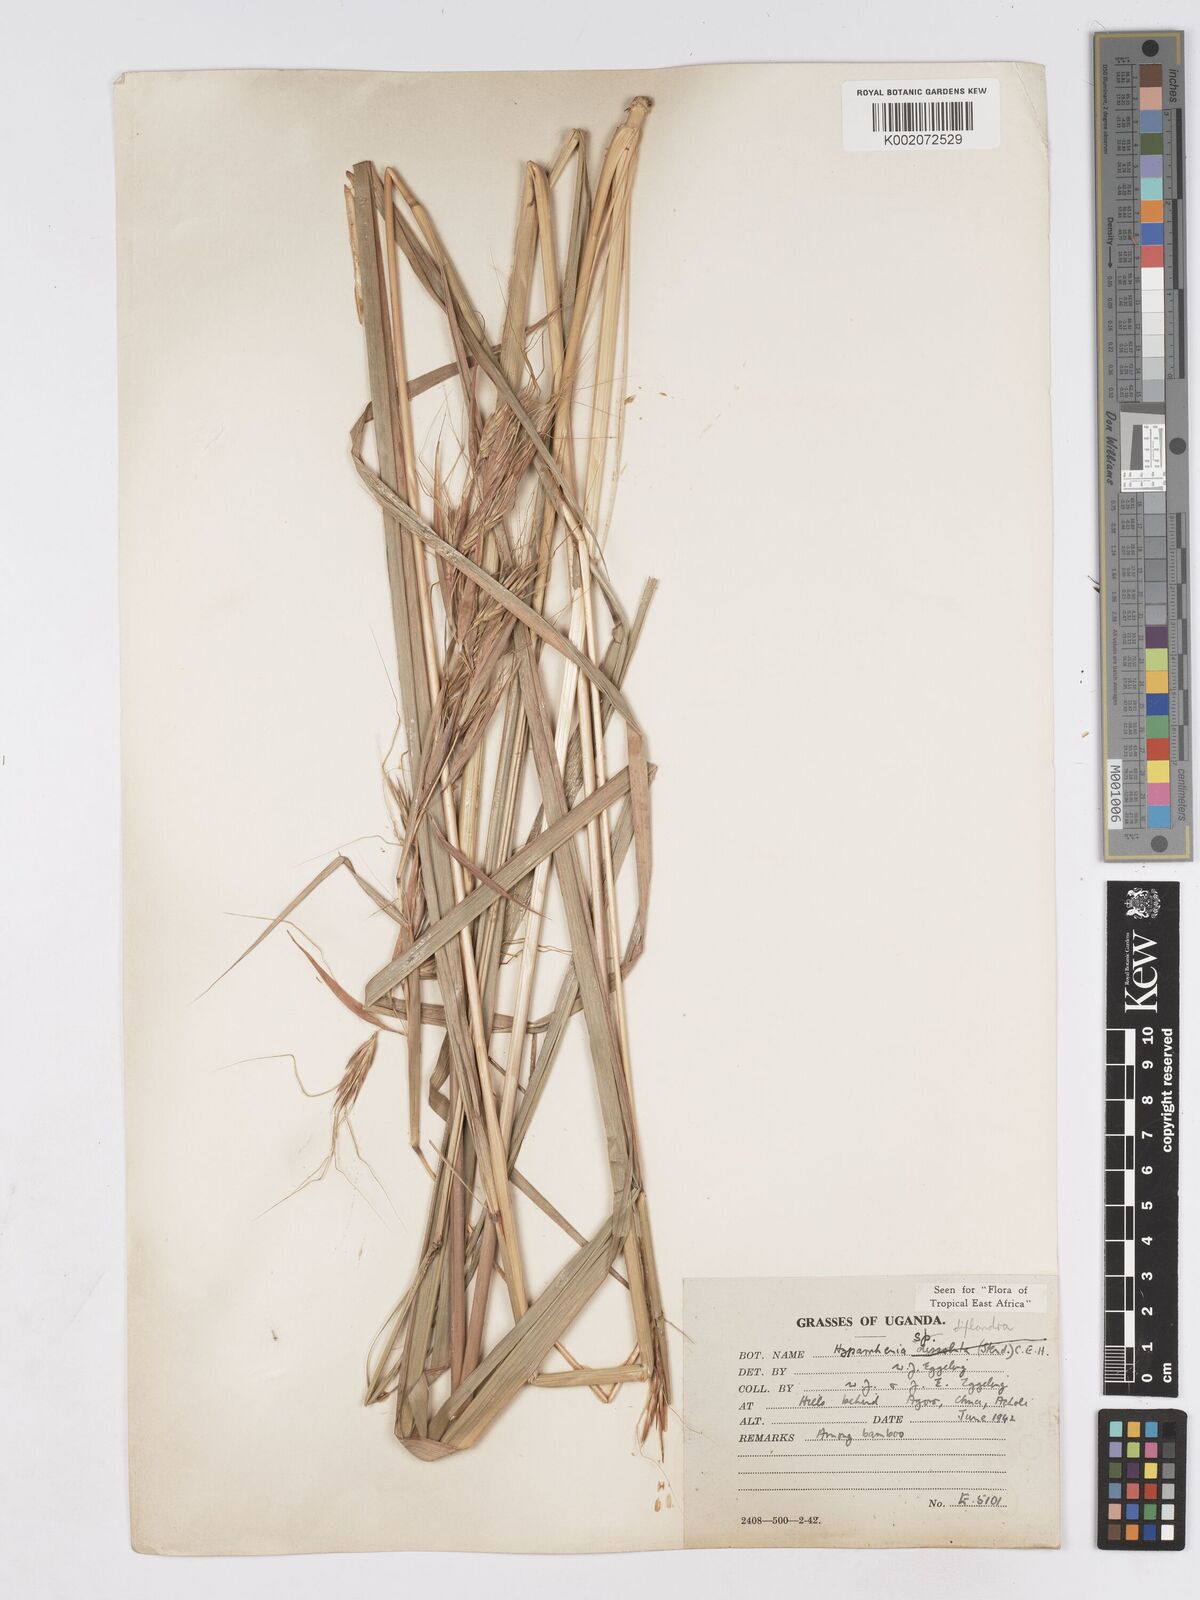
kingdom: Plantae
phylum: Tracheophyta
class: Liliopsida
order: Poales
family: Poaceae
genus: Hyparrhenia
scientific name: Hyparrhenia
